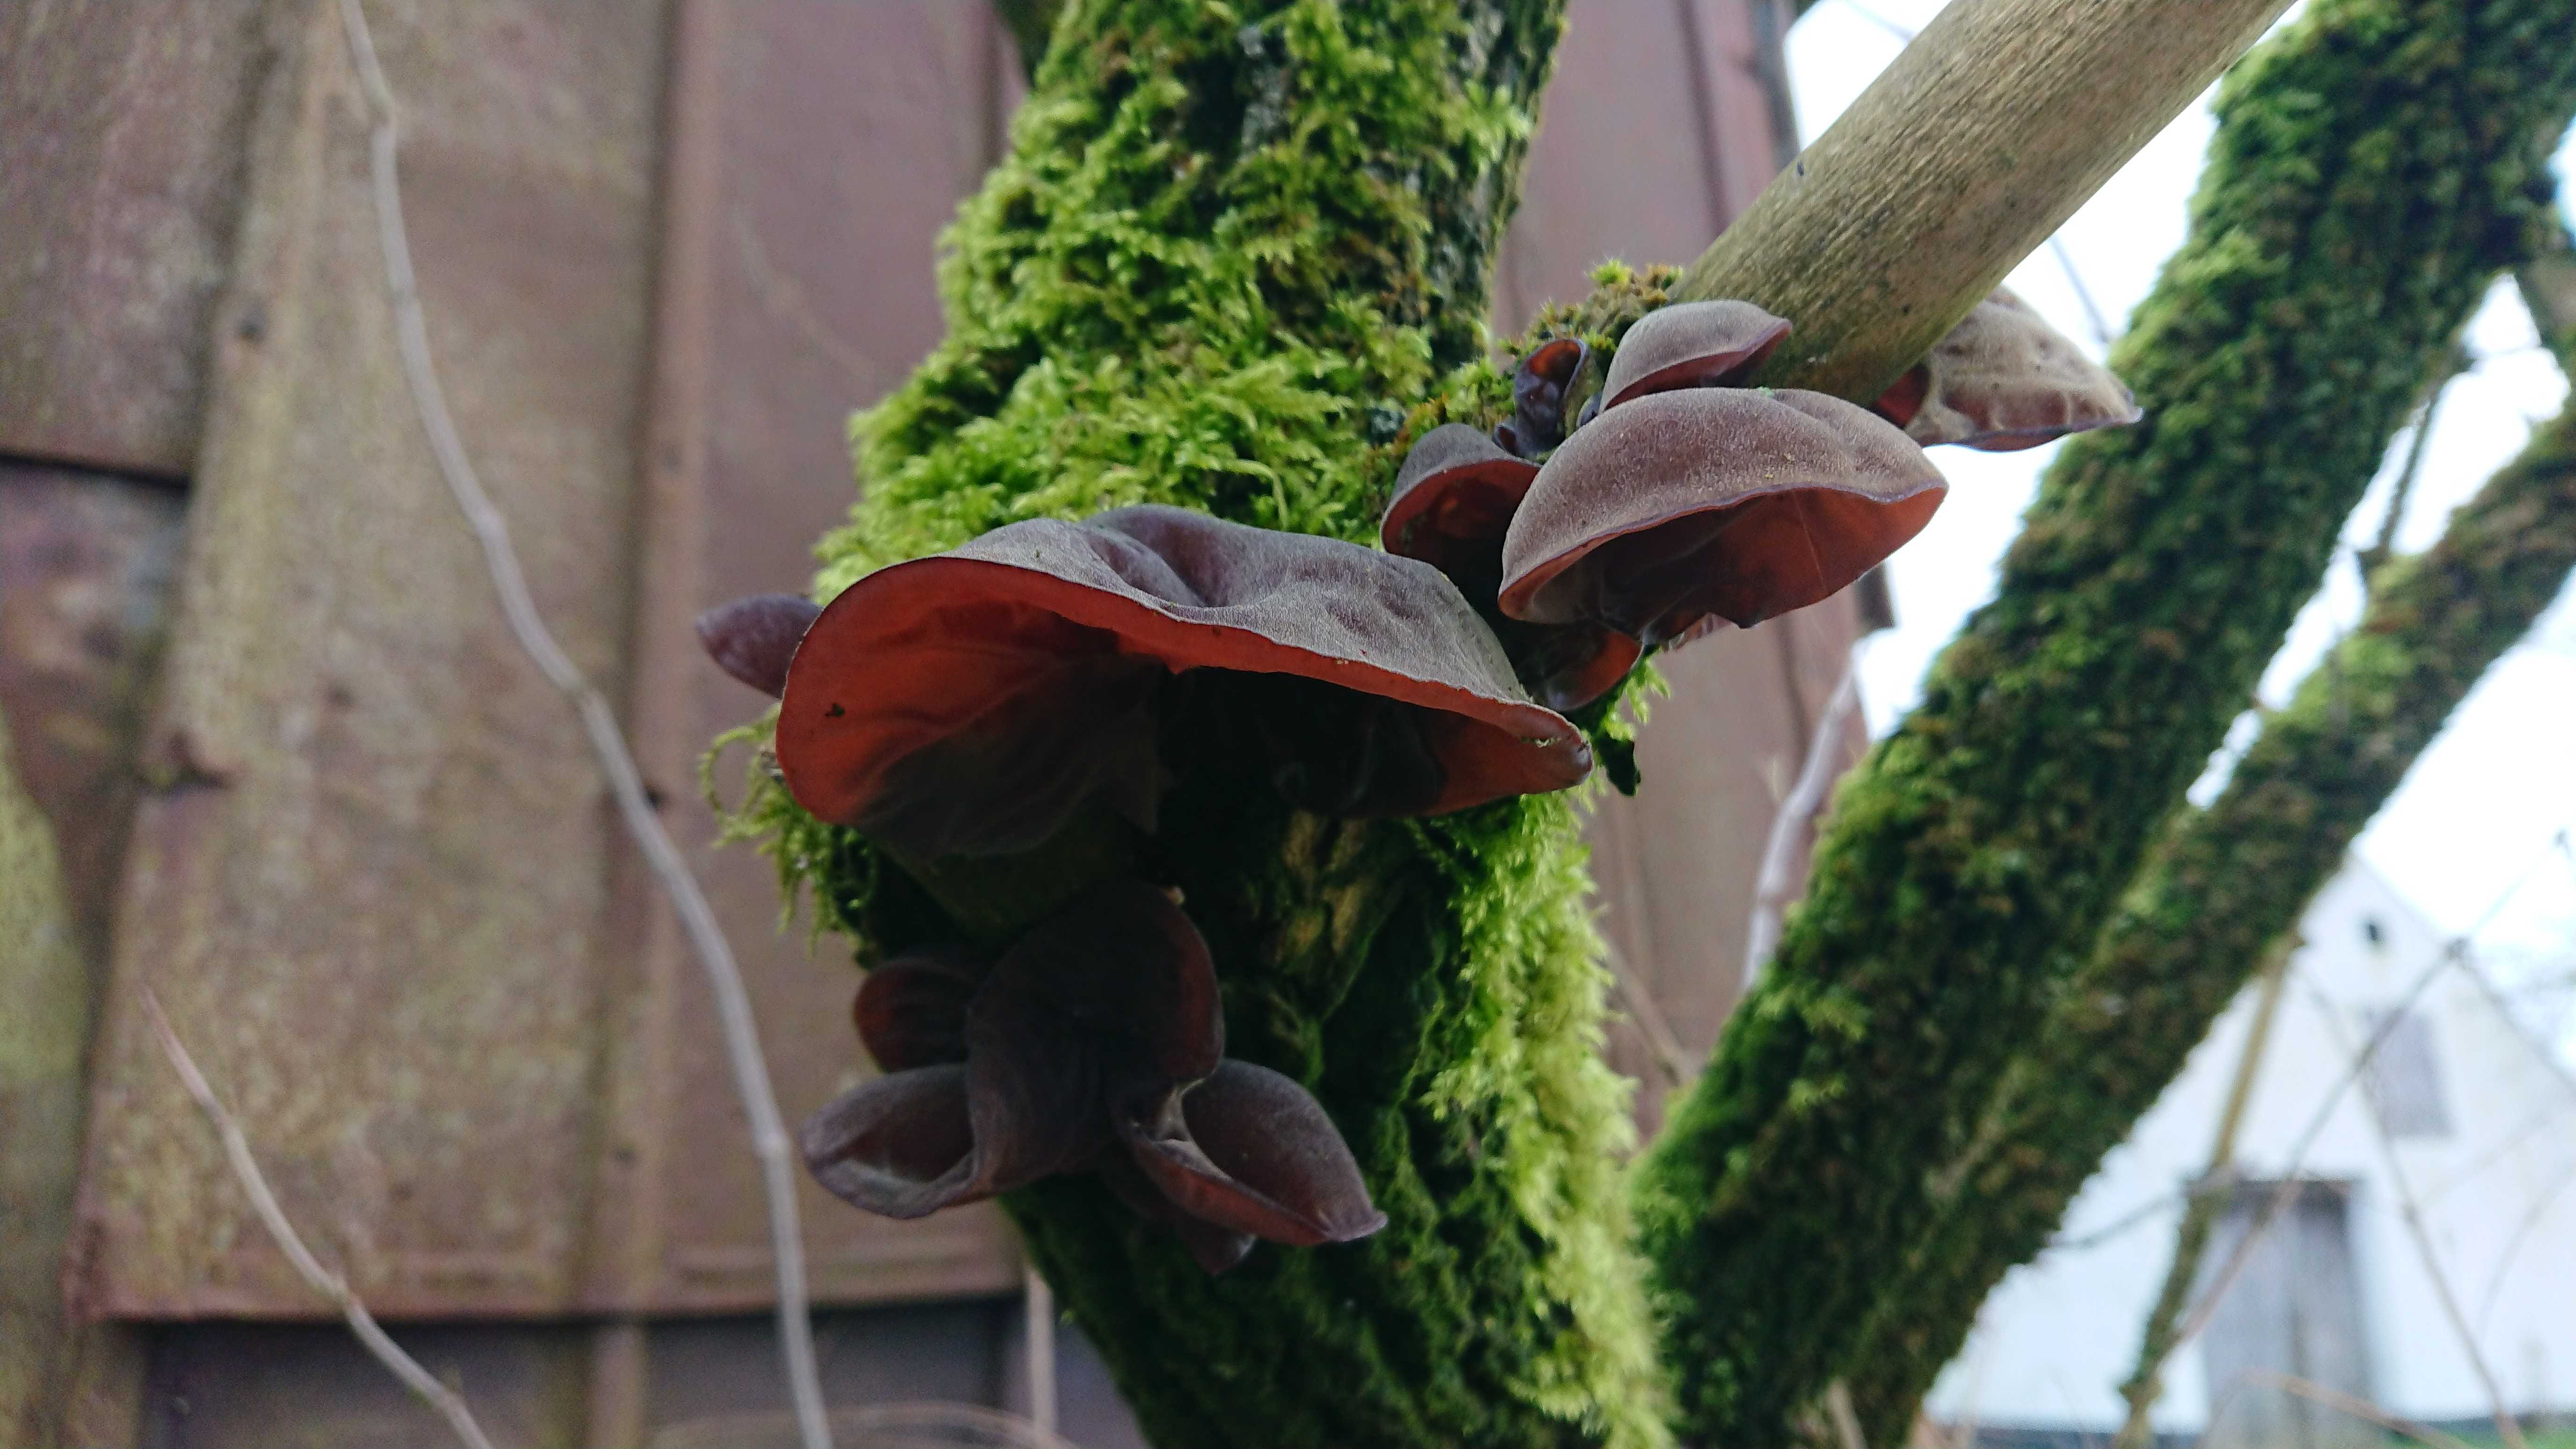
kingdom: Fungi
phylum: Basidiomycota
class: Agaricomycetes
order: Auriculariales
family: Auriculariaceae
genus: Auricularia
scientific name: Auricularia auricula-judae
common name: almindelig judasøre
